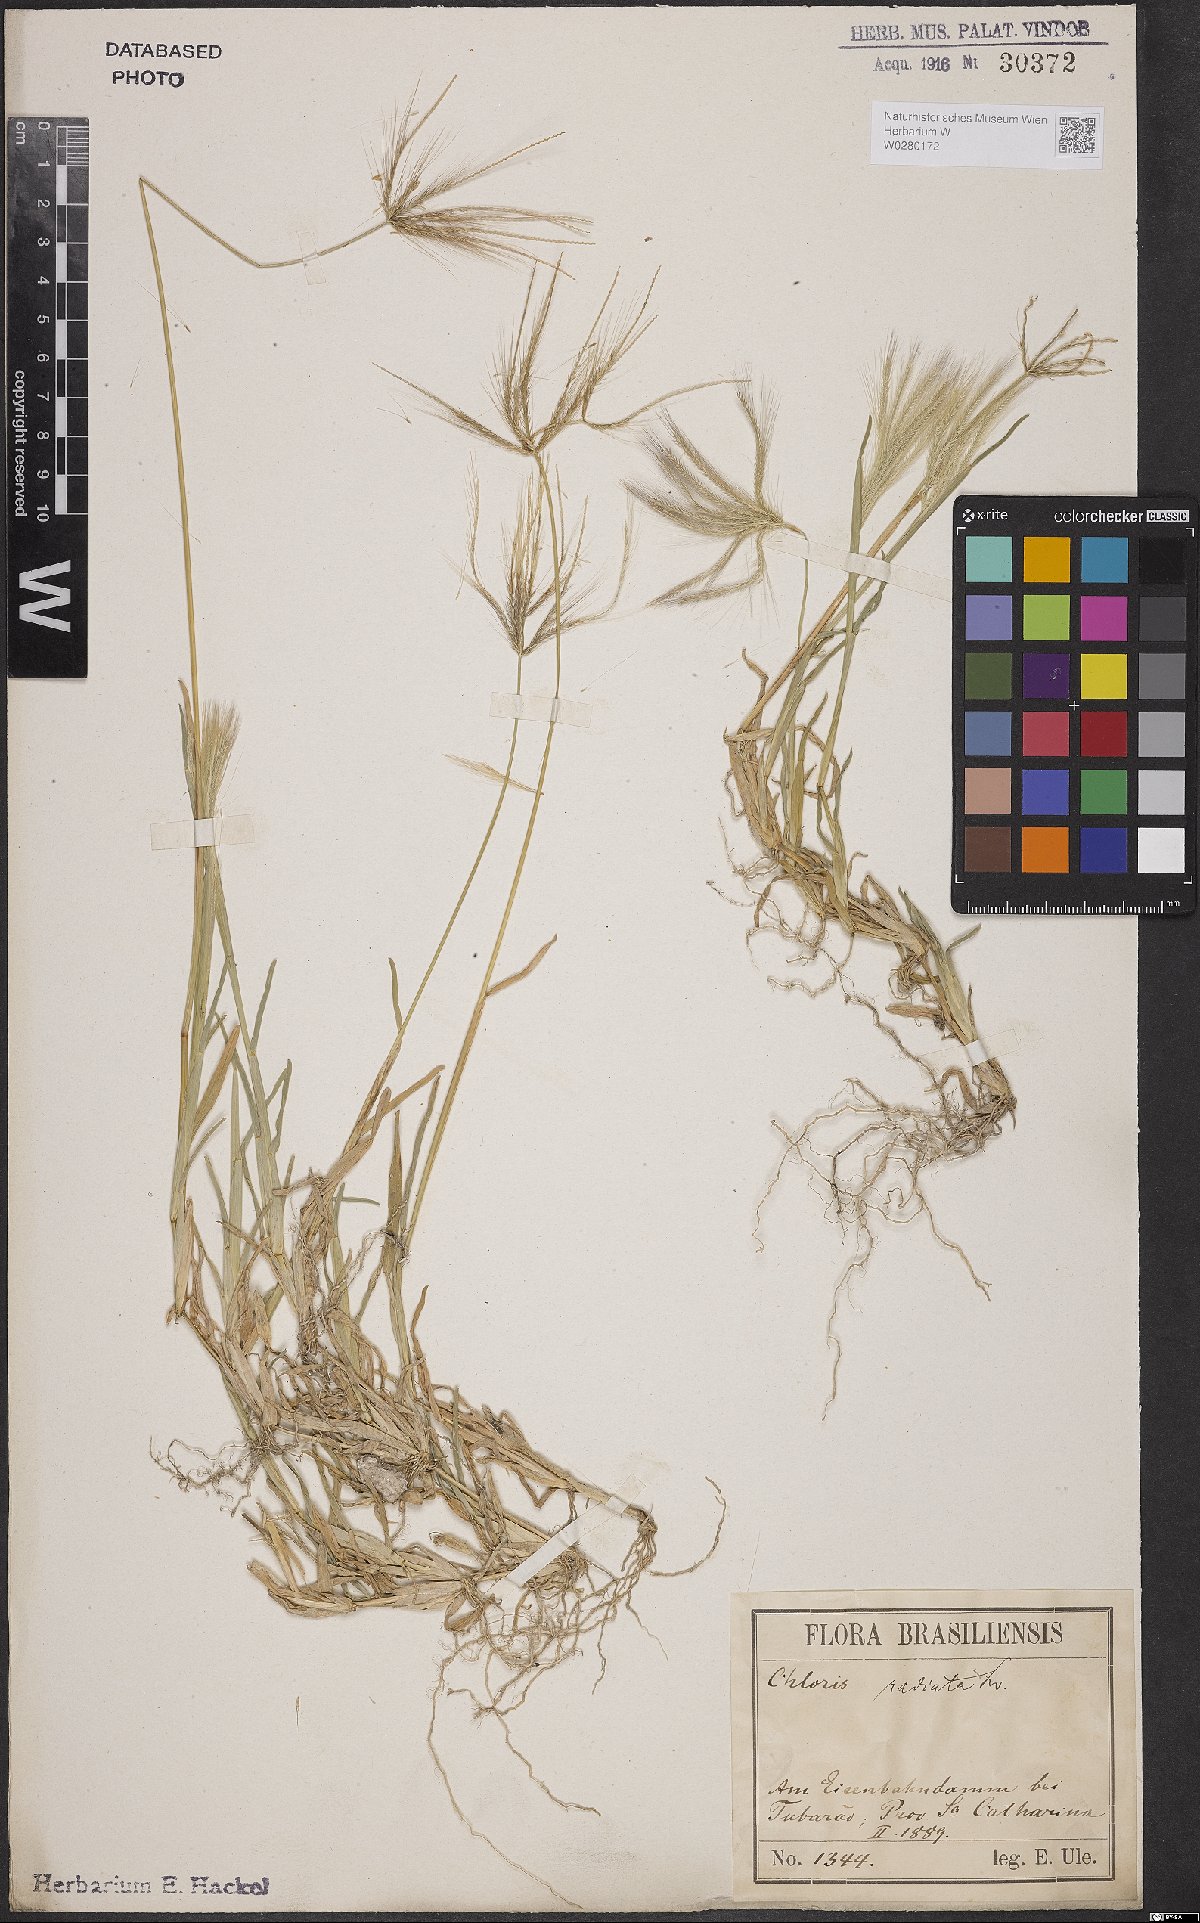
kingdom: Plantae
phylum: Tracheophyta
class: Liliopsida
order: Poales
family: Poaceae
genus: Chloris
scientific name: Chloris radiata
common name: Radiate fingergrass
